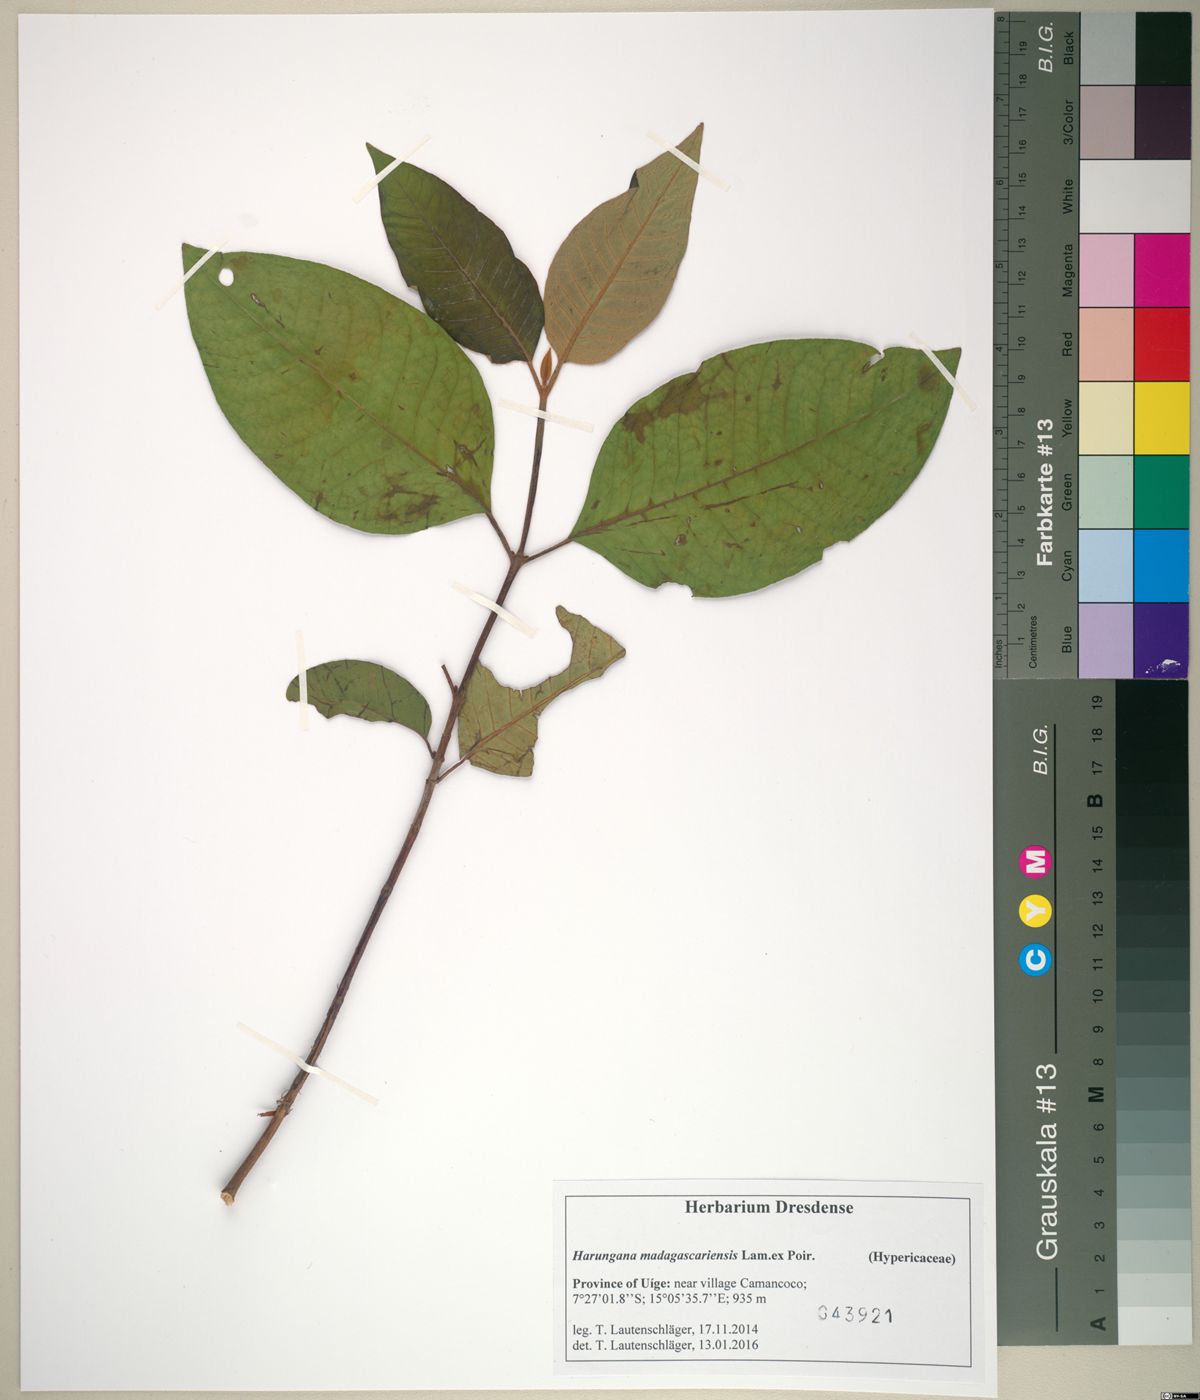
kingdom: Plantae
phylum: Tracheophyta
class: Magnoliopsida
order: Malpighiales
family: Hypericaceae
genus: Harungana
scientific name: Harungana madagascariensis
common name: Orange milktree
